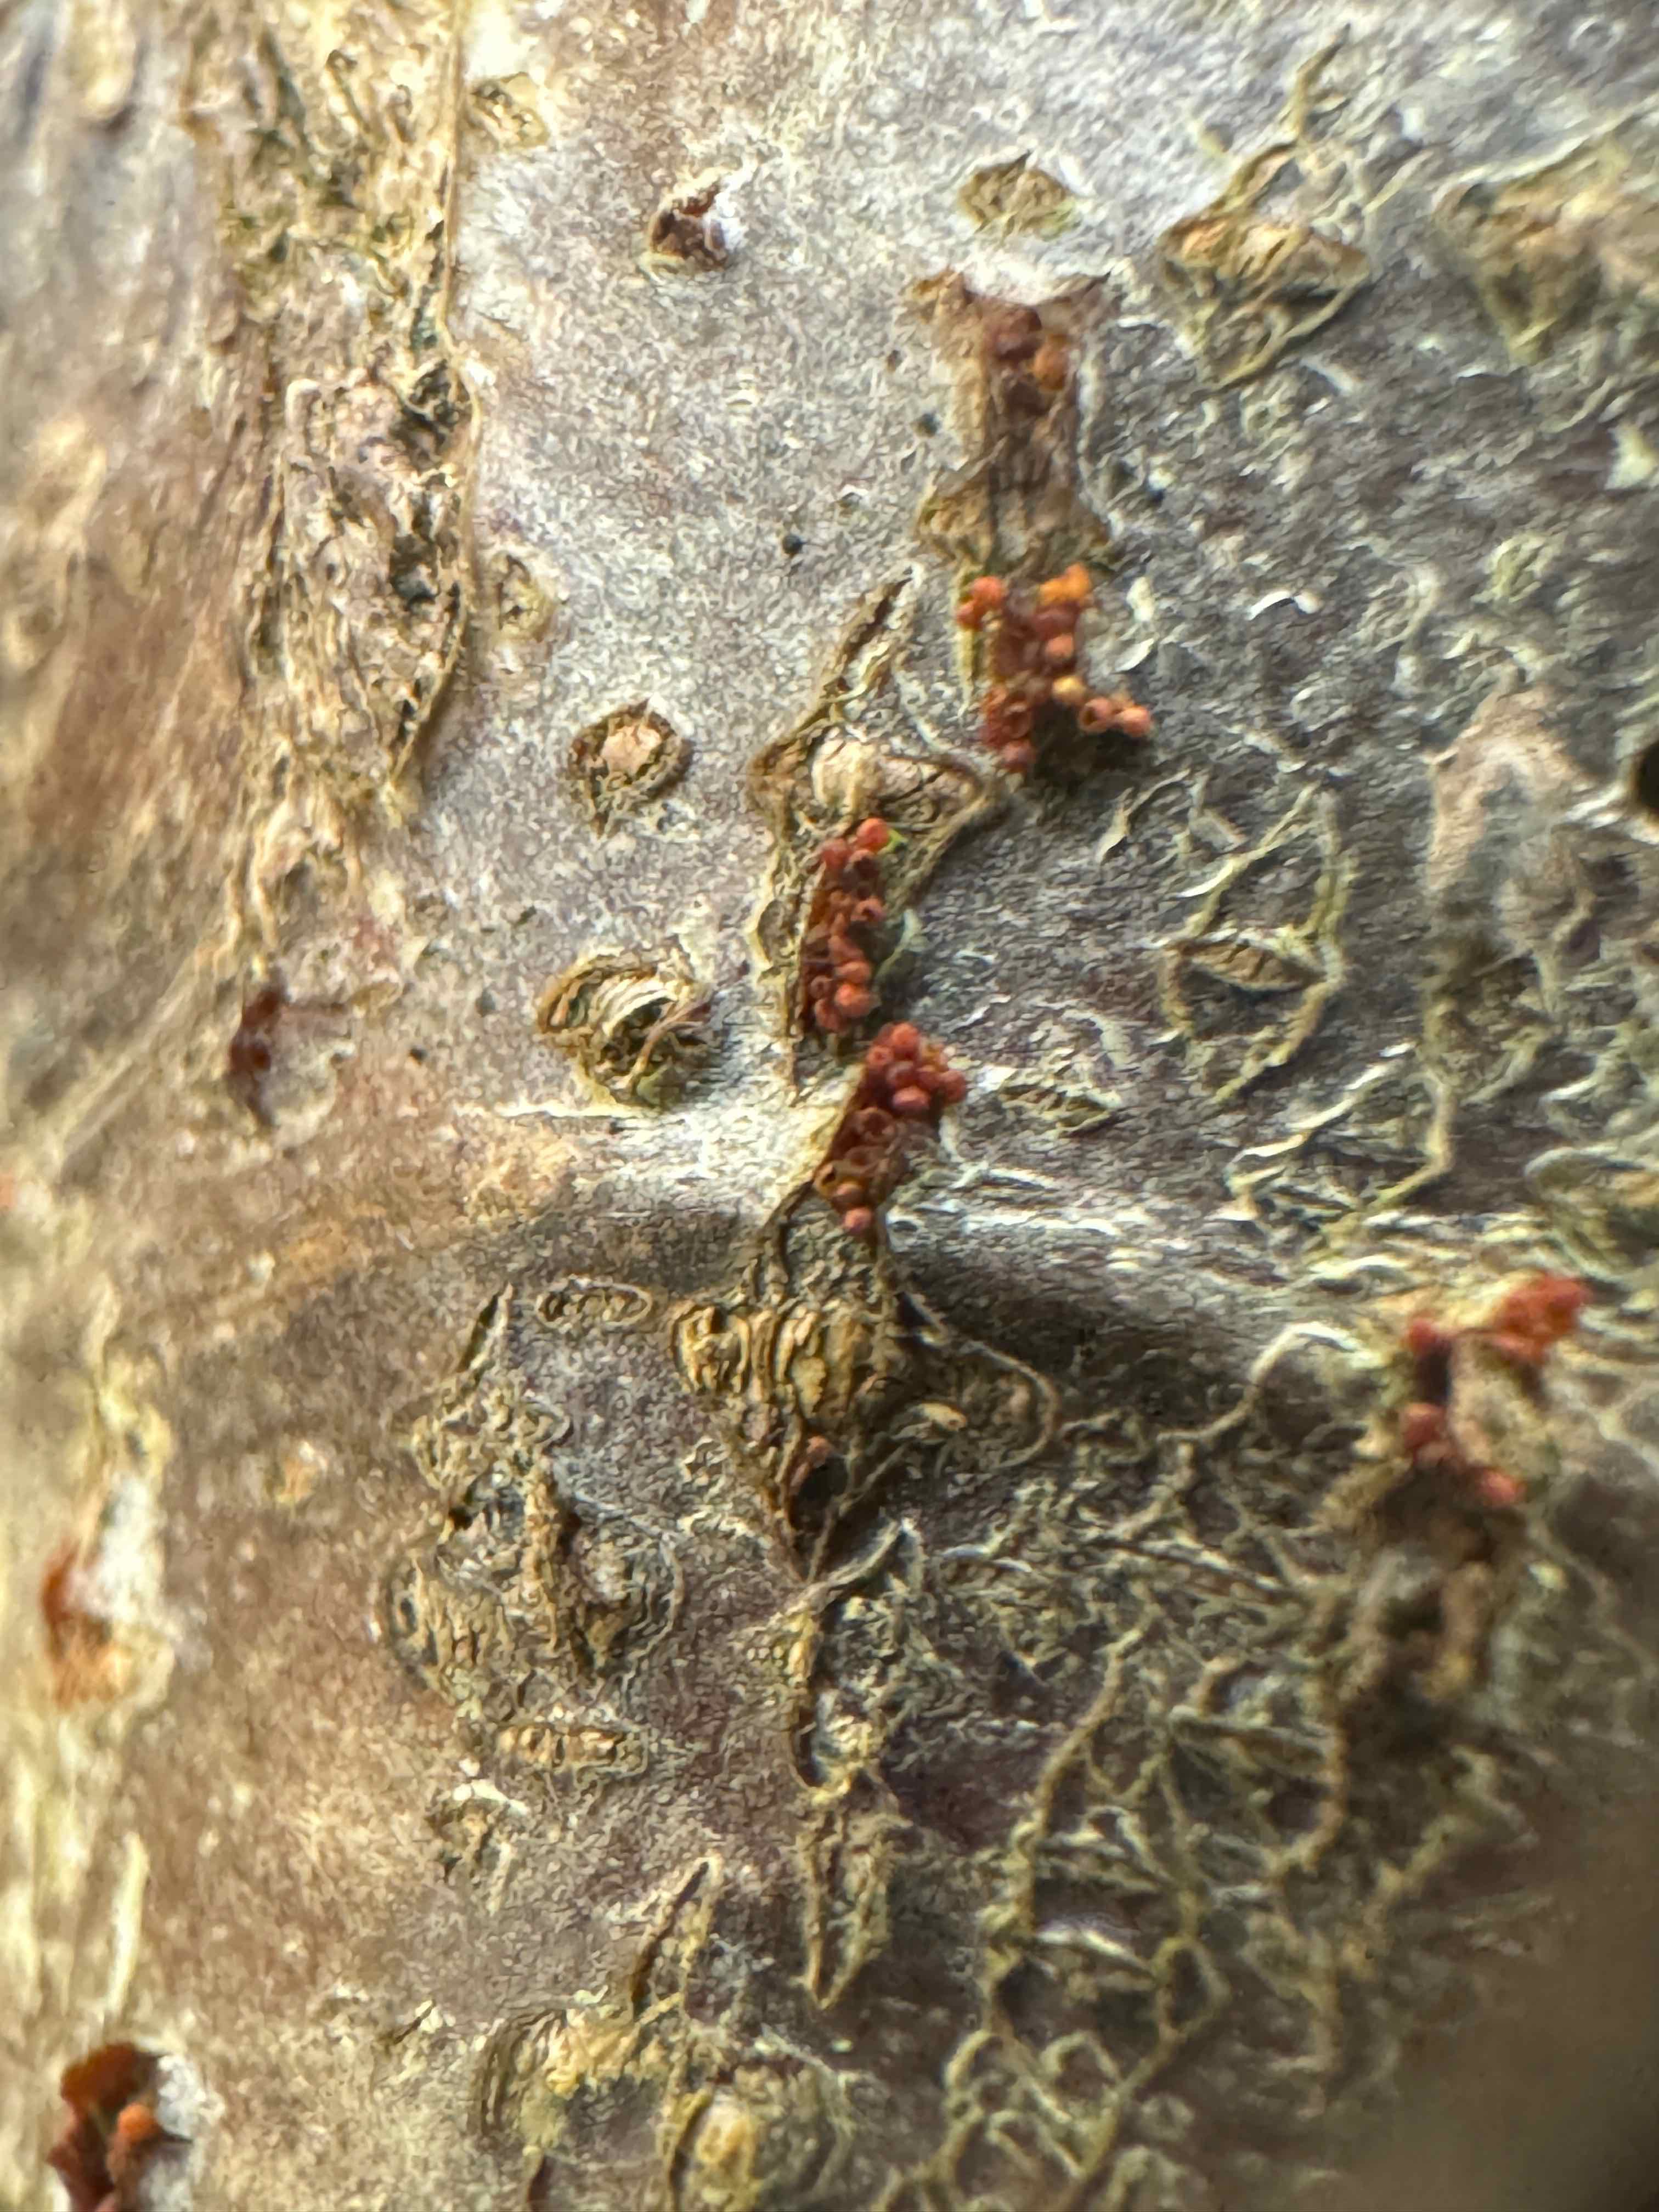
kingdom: Fungi
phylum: Ascomycota
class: Sordariomycetes
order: Hypocreales
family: Nectriaceae
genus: Neonectria
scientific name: Neonectria coccinea
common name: bøgebark-cinnobersvamp
